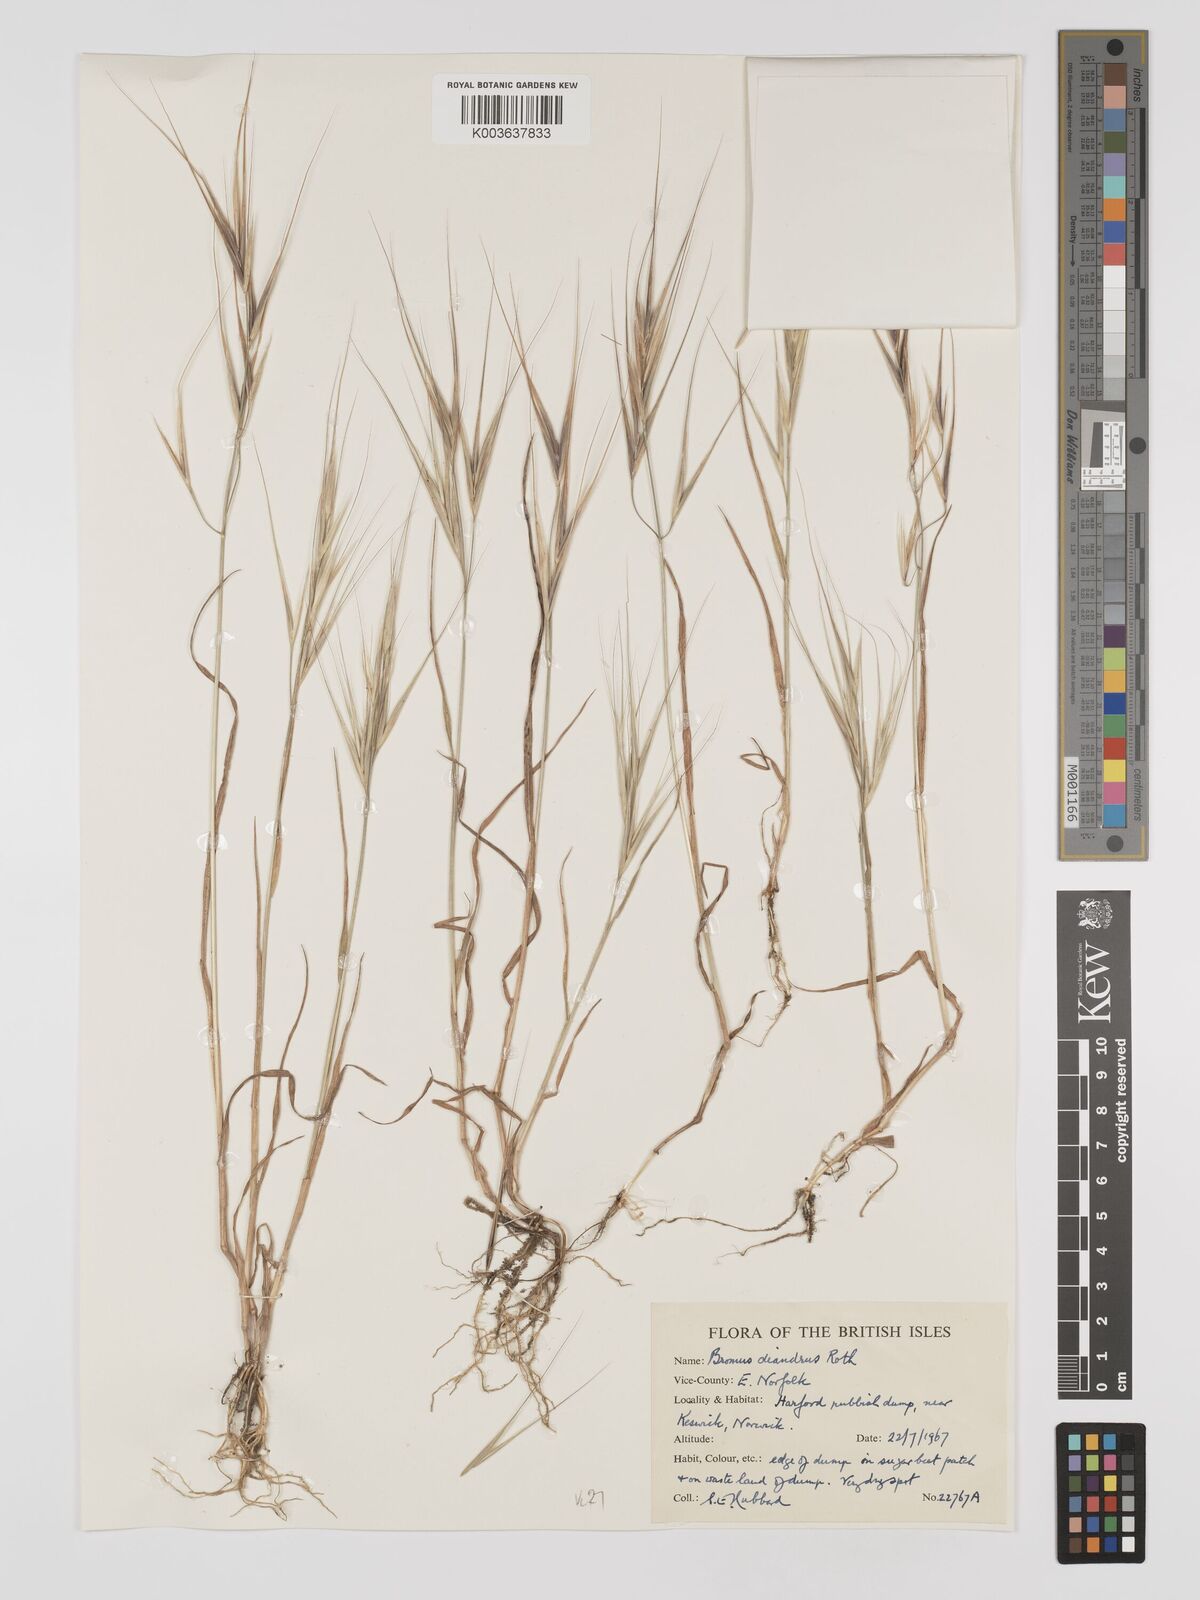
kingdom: Plantae
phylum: Tracheophyta
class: Liliopsida
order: Poales
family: Poaceae
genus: Bromus
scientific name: Bromus
